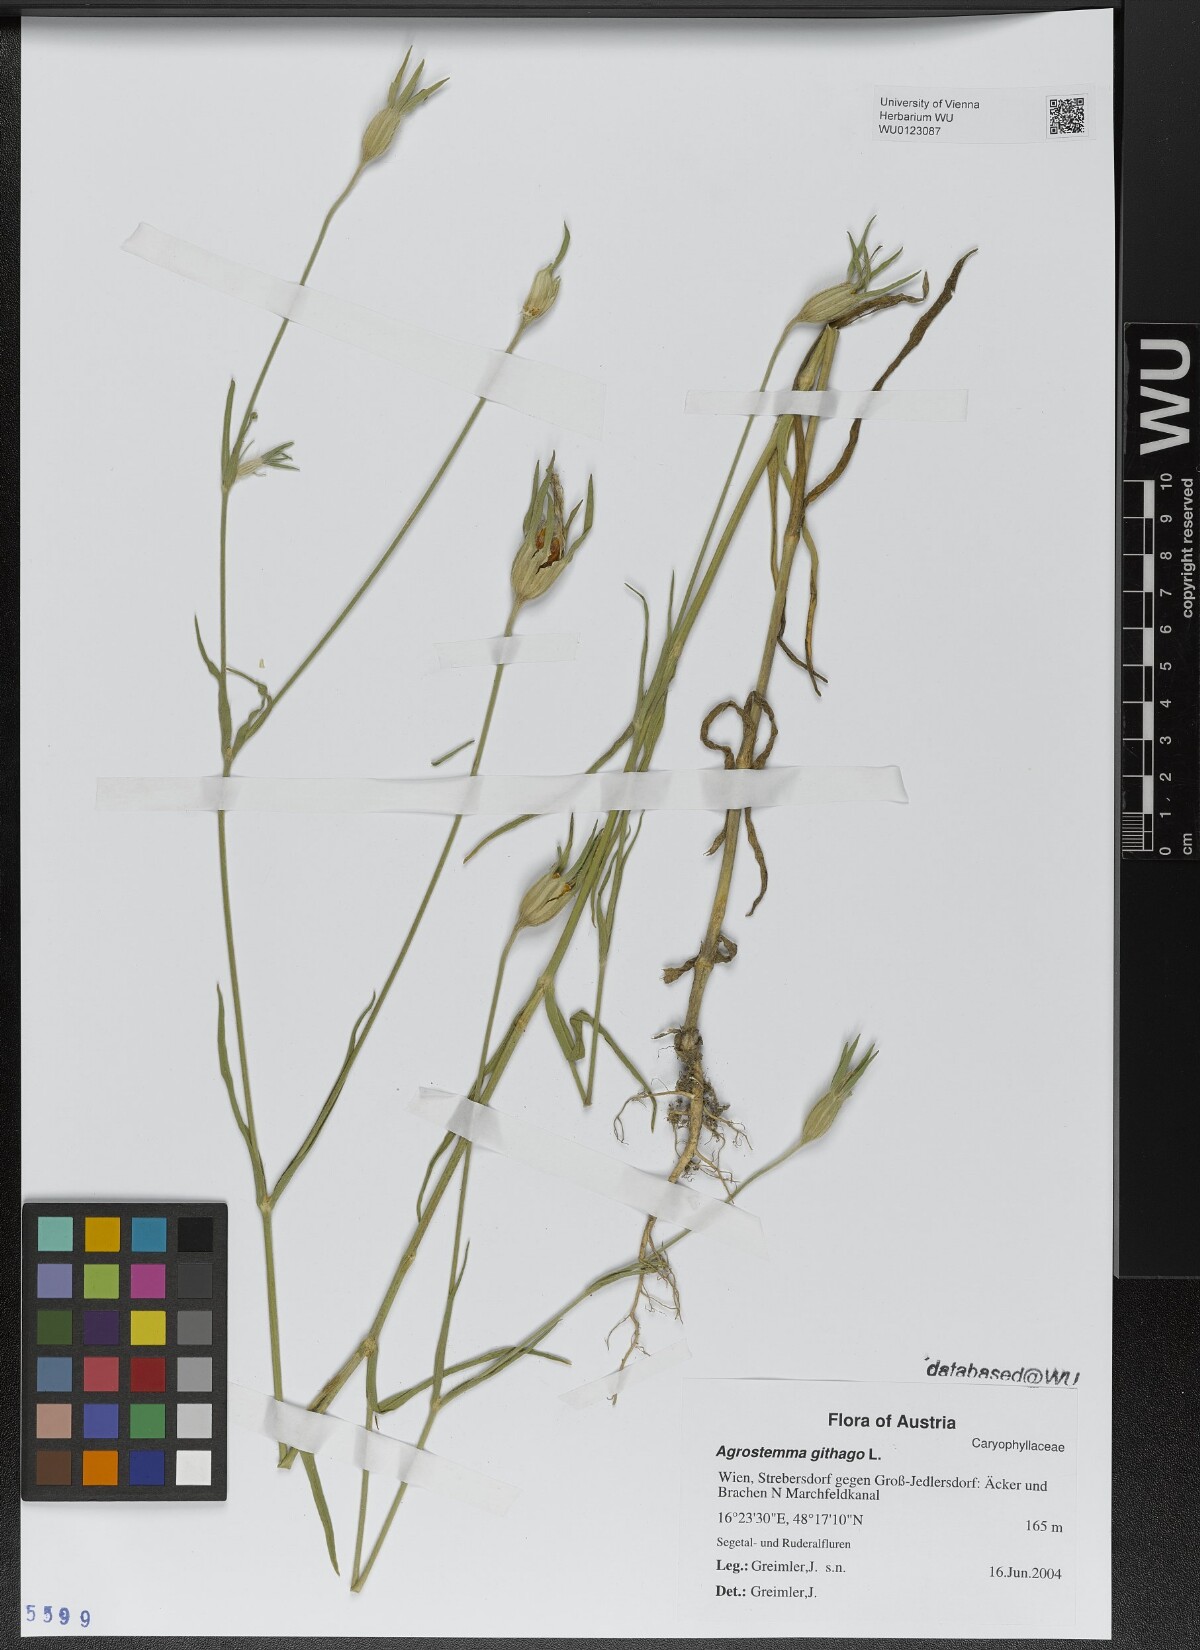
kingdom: Plantae
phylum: Tracheophyta
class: Magnoliopsida
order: Caryophyllales
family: Caryophyllaceae
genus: Agrostemma
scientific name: Agrostemma githago
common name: Common corncockle
